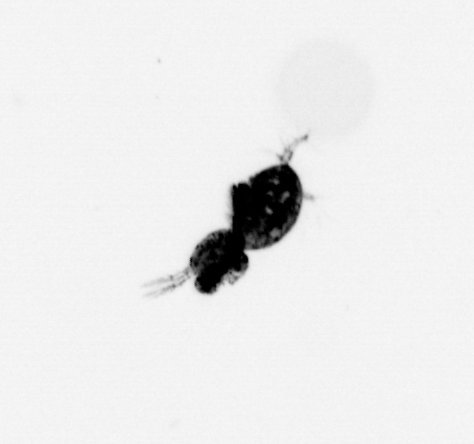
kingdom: Animalia
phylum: Arthropoda
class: Copepoda
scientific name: Copepoda
